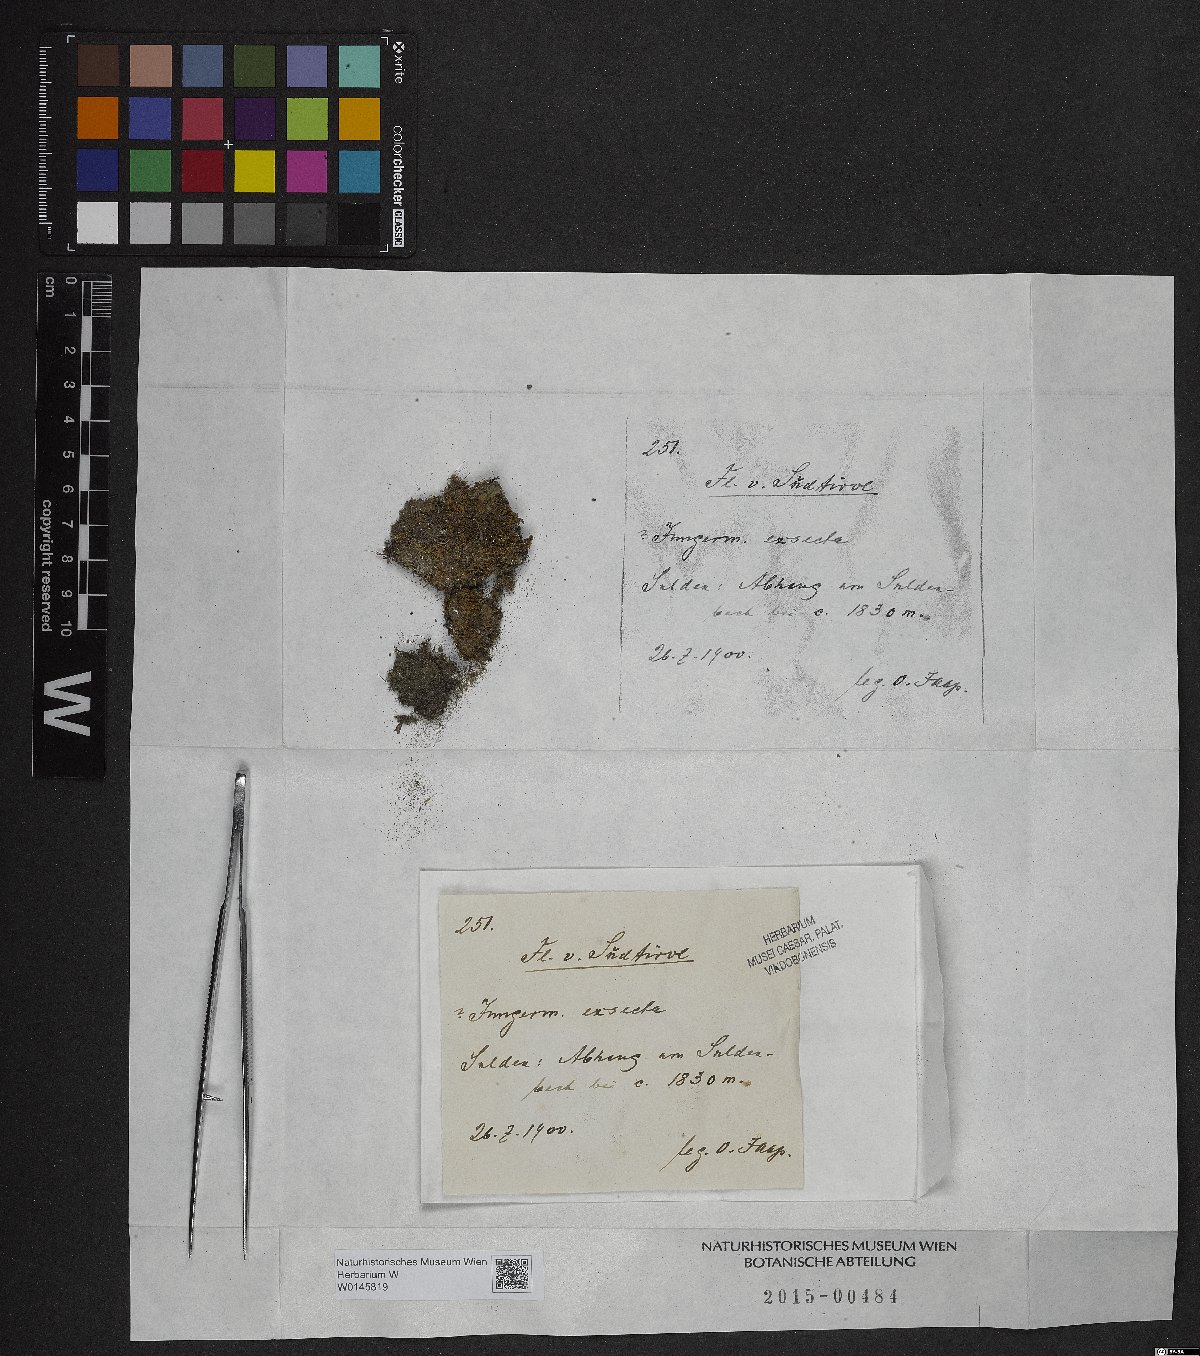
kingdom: Plantae
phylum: Marchantiophyta
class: Jungermanniopsida
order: Jungermanniales
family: Lophoziaceae
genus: Tritomaria
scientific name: Tritomaria exsecta
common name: Cut notchwort
